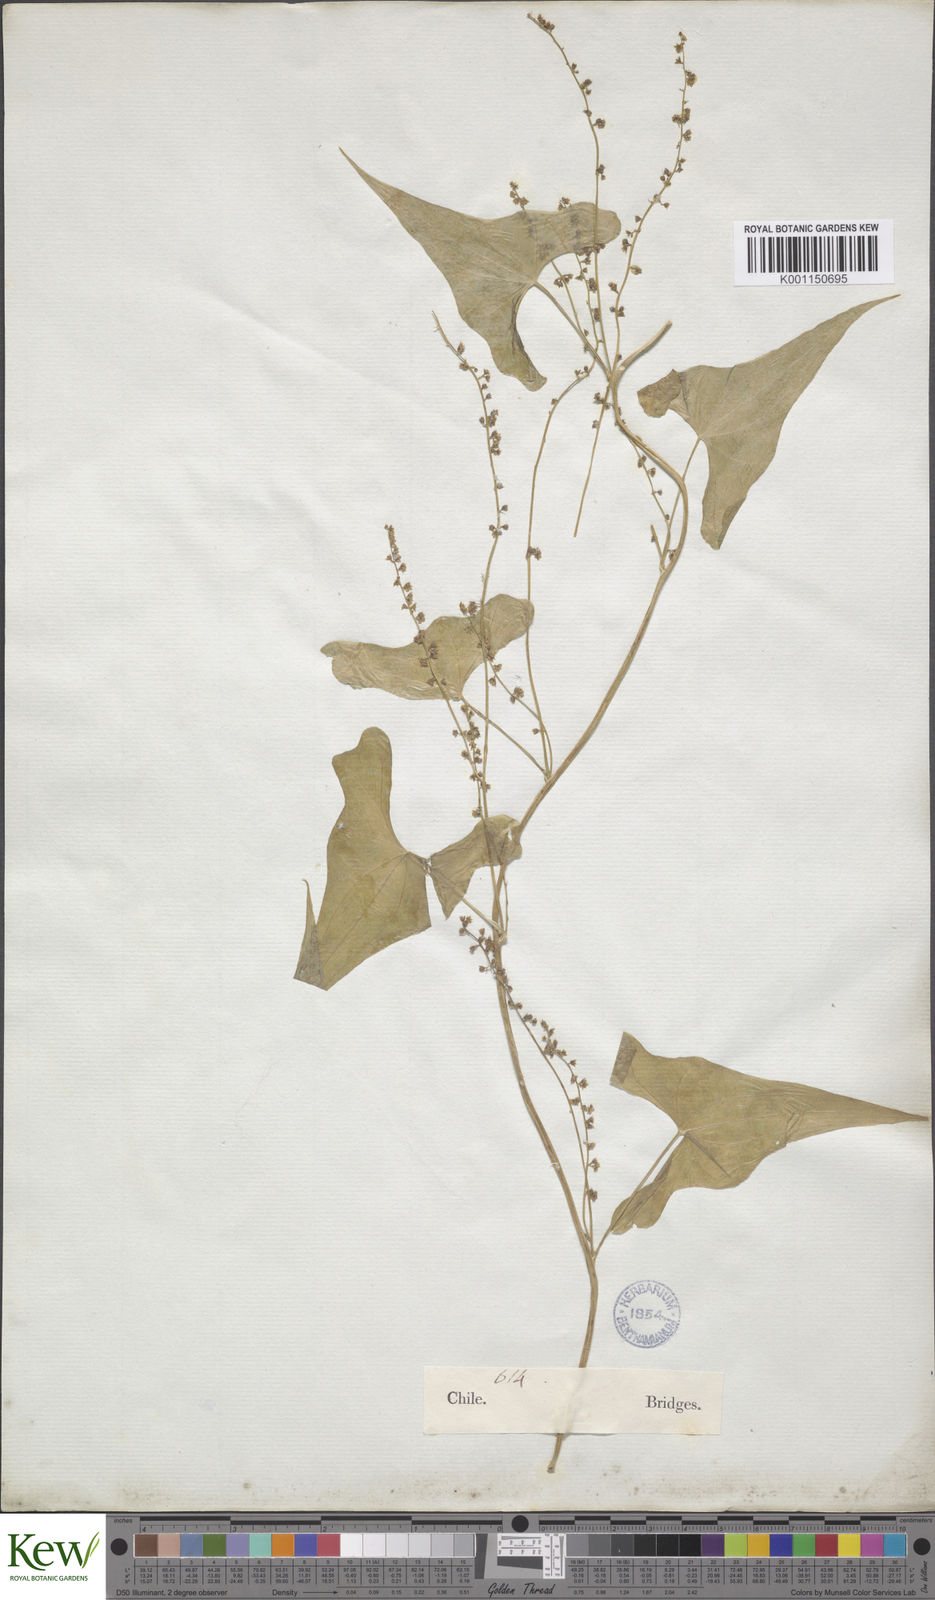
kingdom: Plantae
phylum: Tracheophyta
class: Liliopsida
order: Dioscoreales
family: Dioscoreaceae
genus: Dioscorea
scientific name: Dioscorea auriculata
